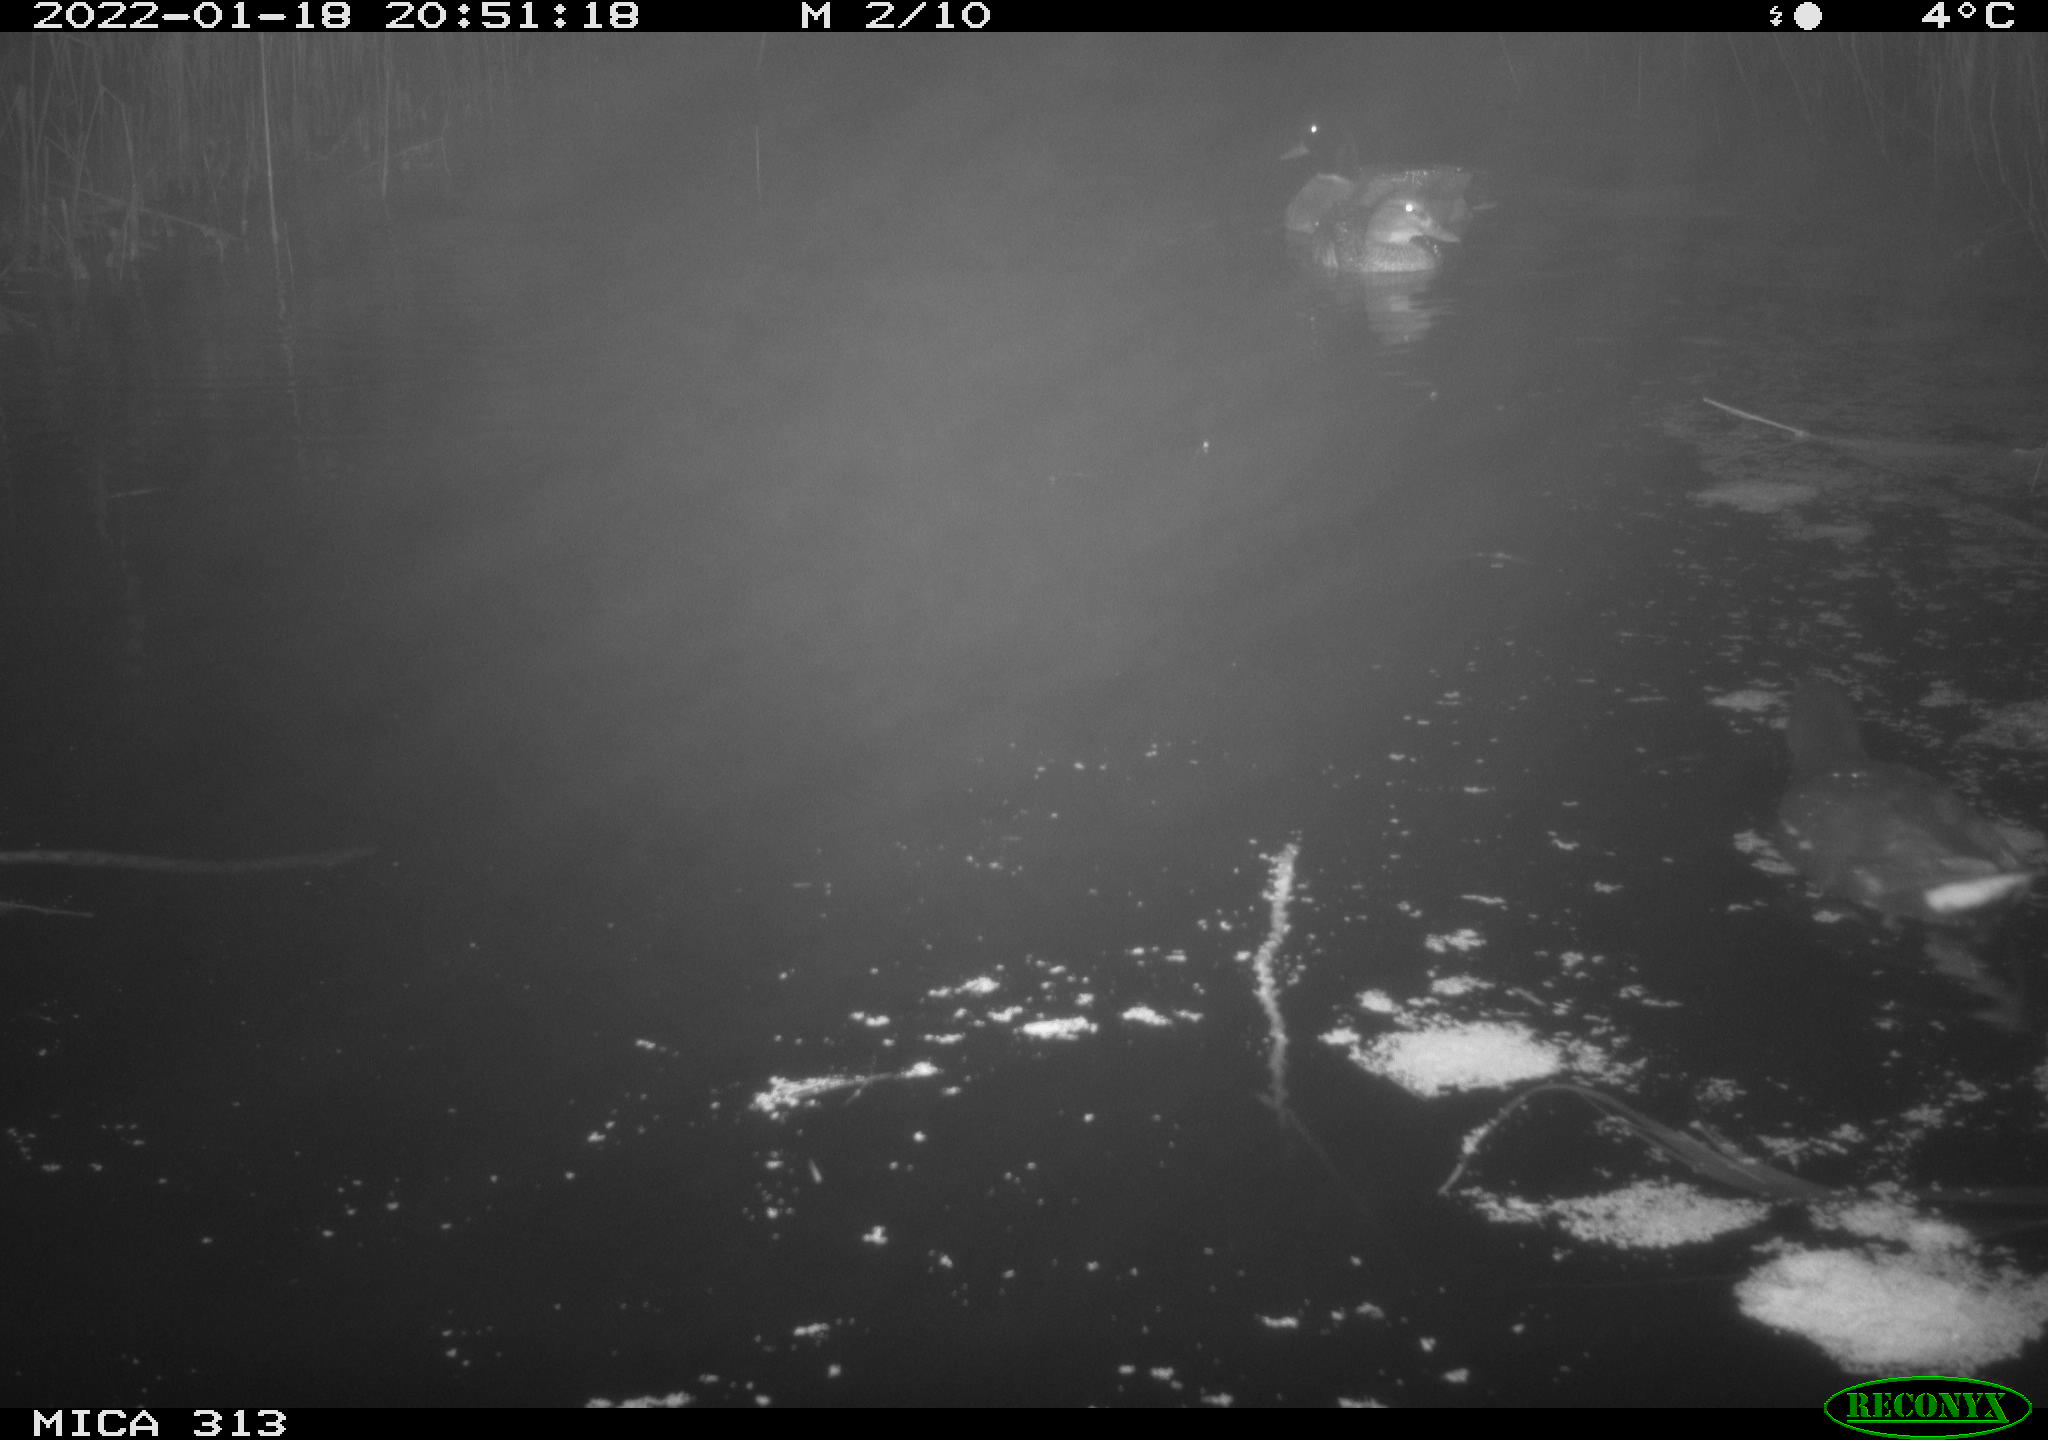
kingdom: Animalia
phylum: Chordata
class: Aves
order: Anseriformes
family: Anatidae
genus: Anas
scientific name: Anas
